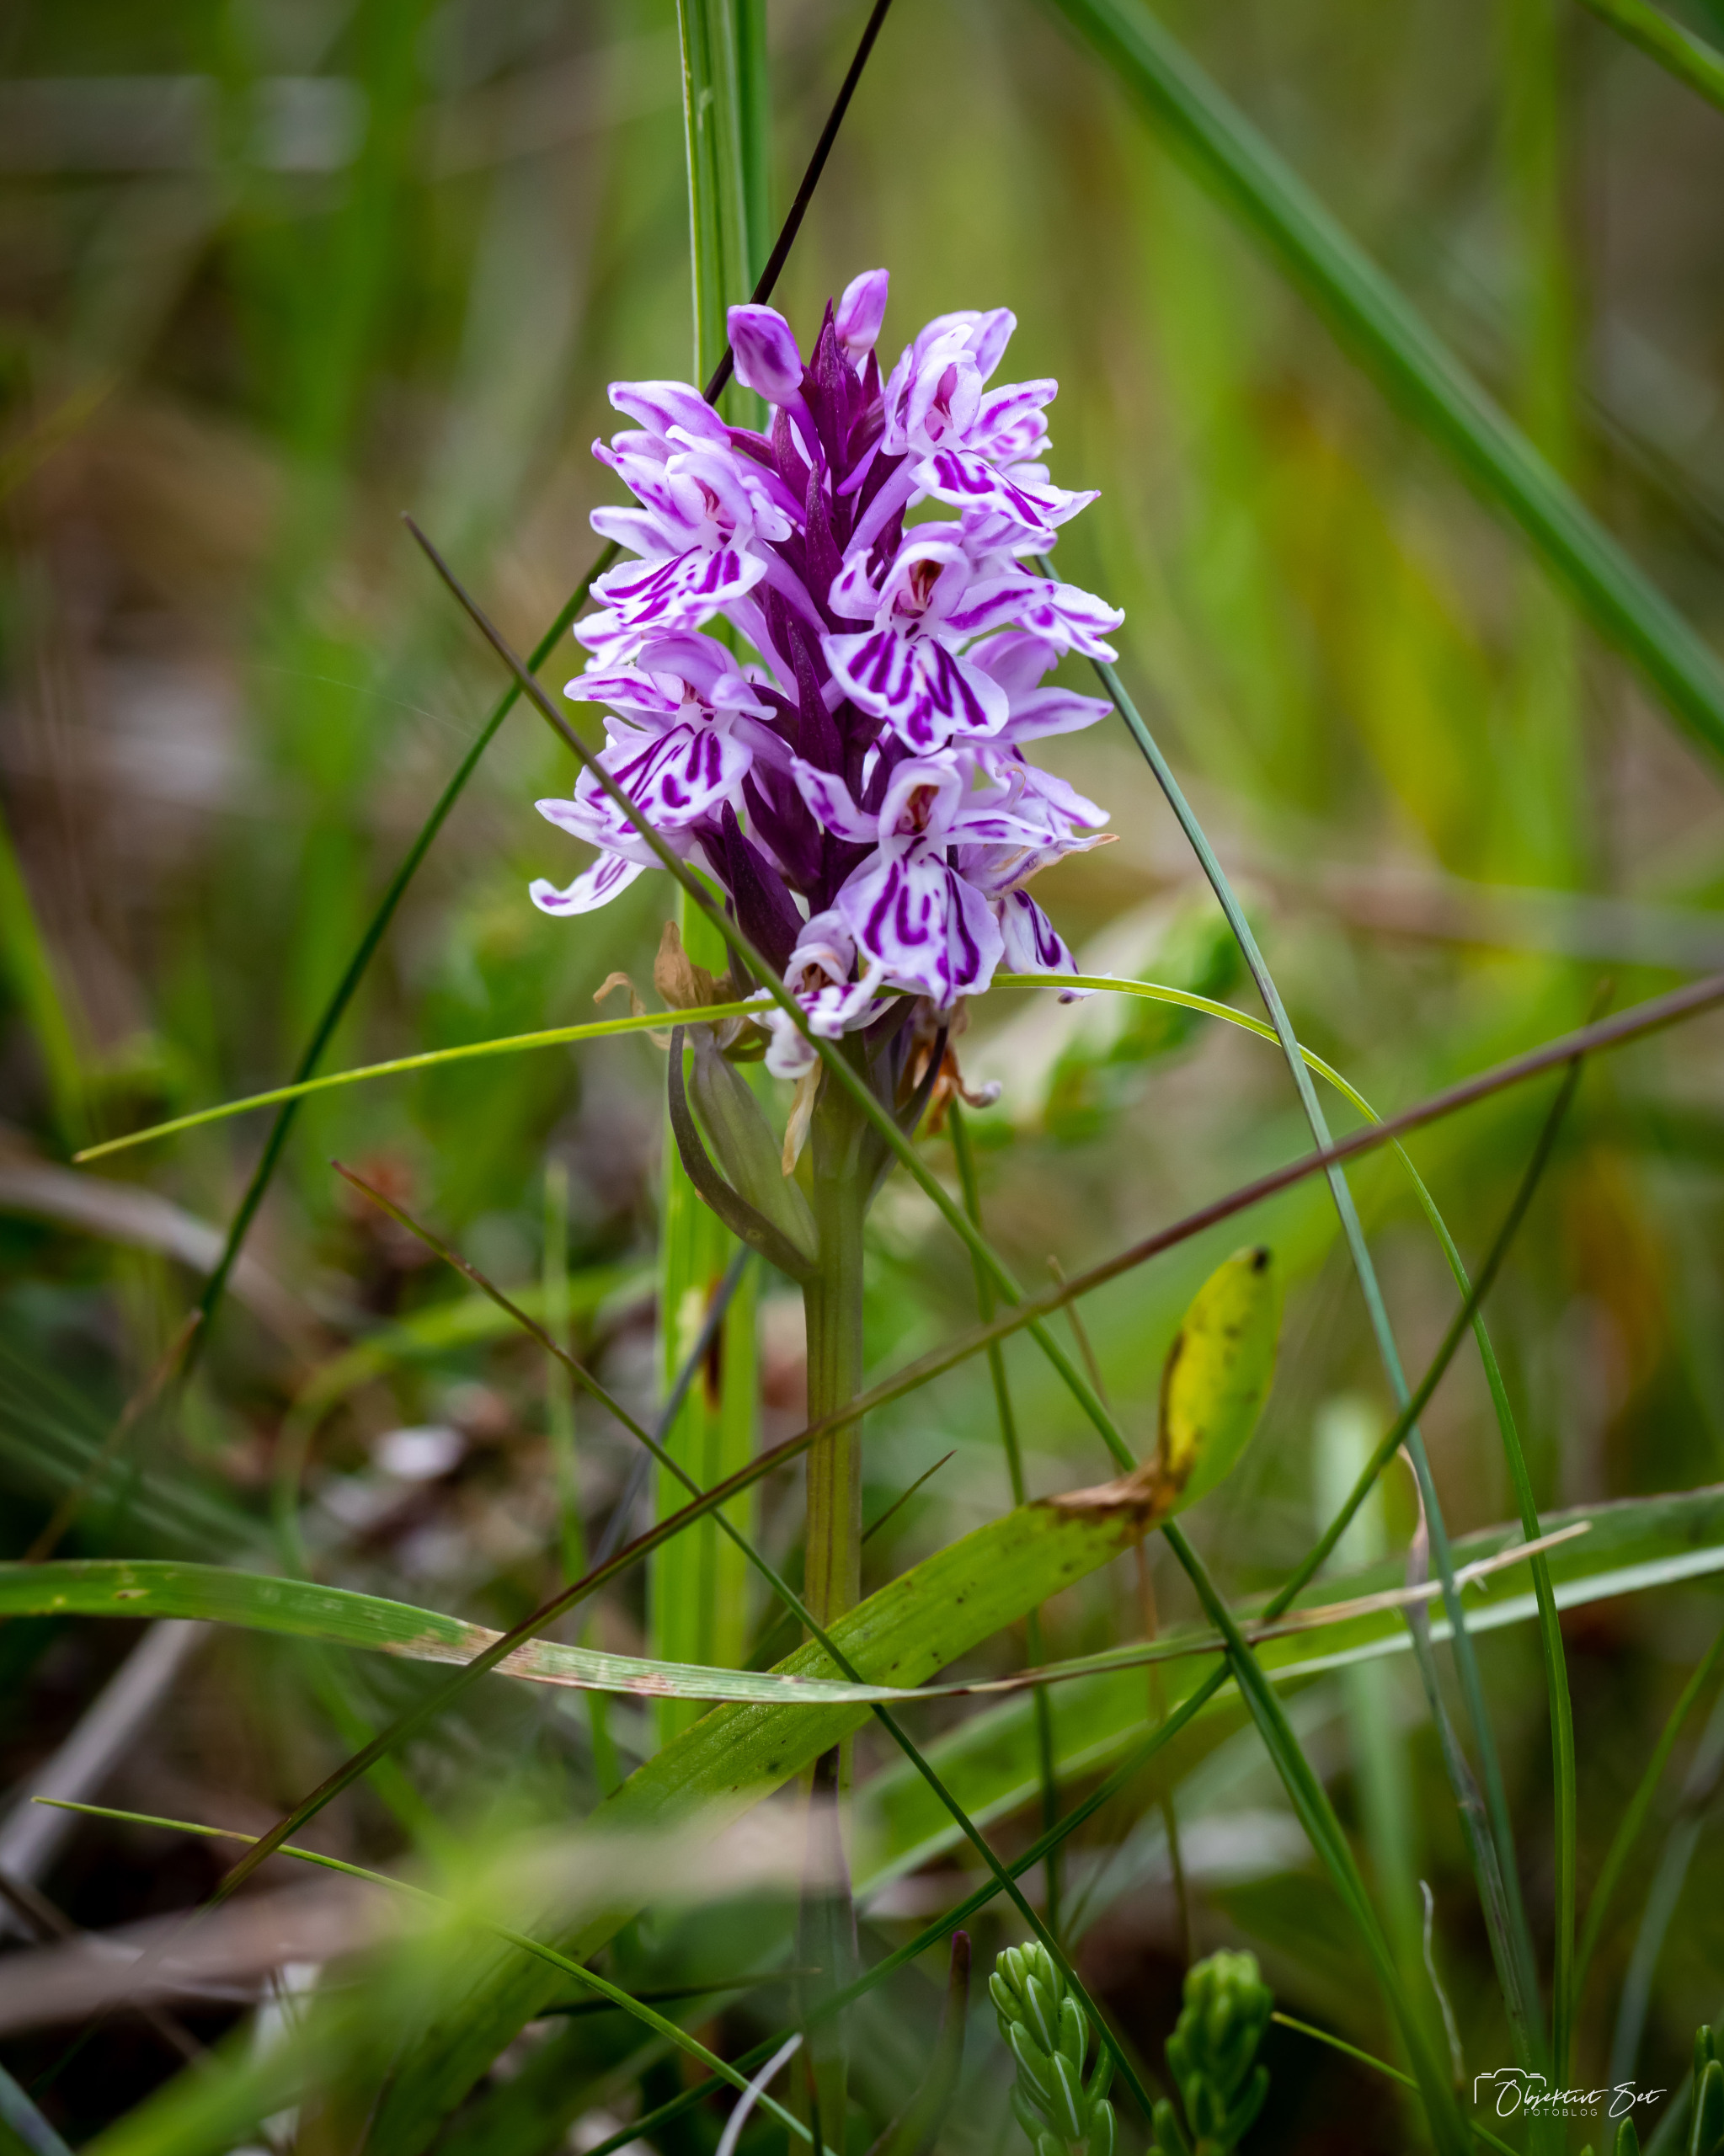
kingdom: Plantae
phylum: Tracheophyta
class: Liliopsida
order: Asparagales
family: Orchidaceae
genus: Dactylorhiza
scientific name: Dactylorhiza maculata
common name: Plettet gøgeurt
